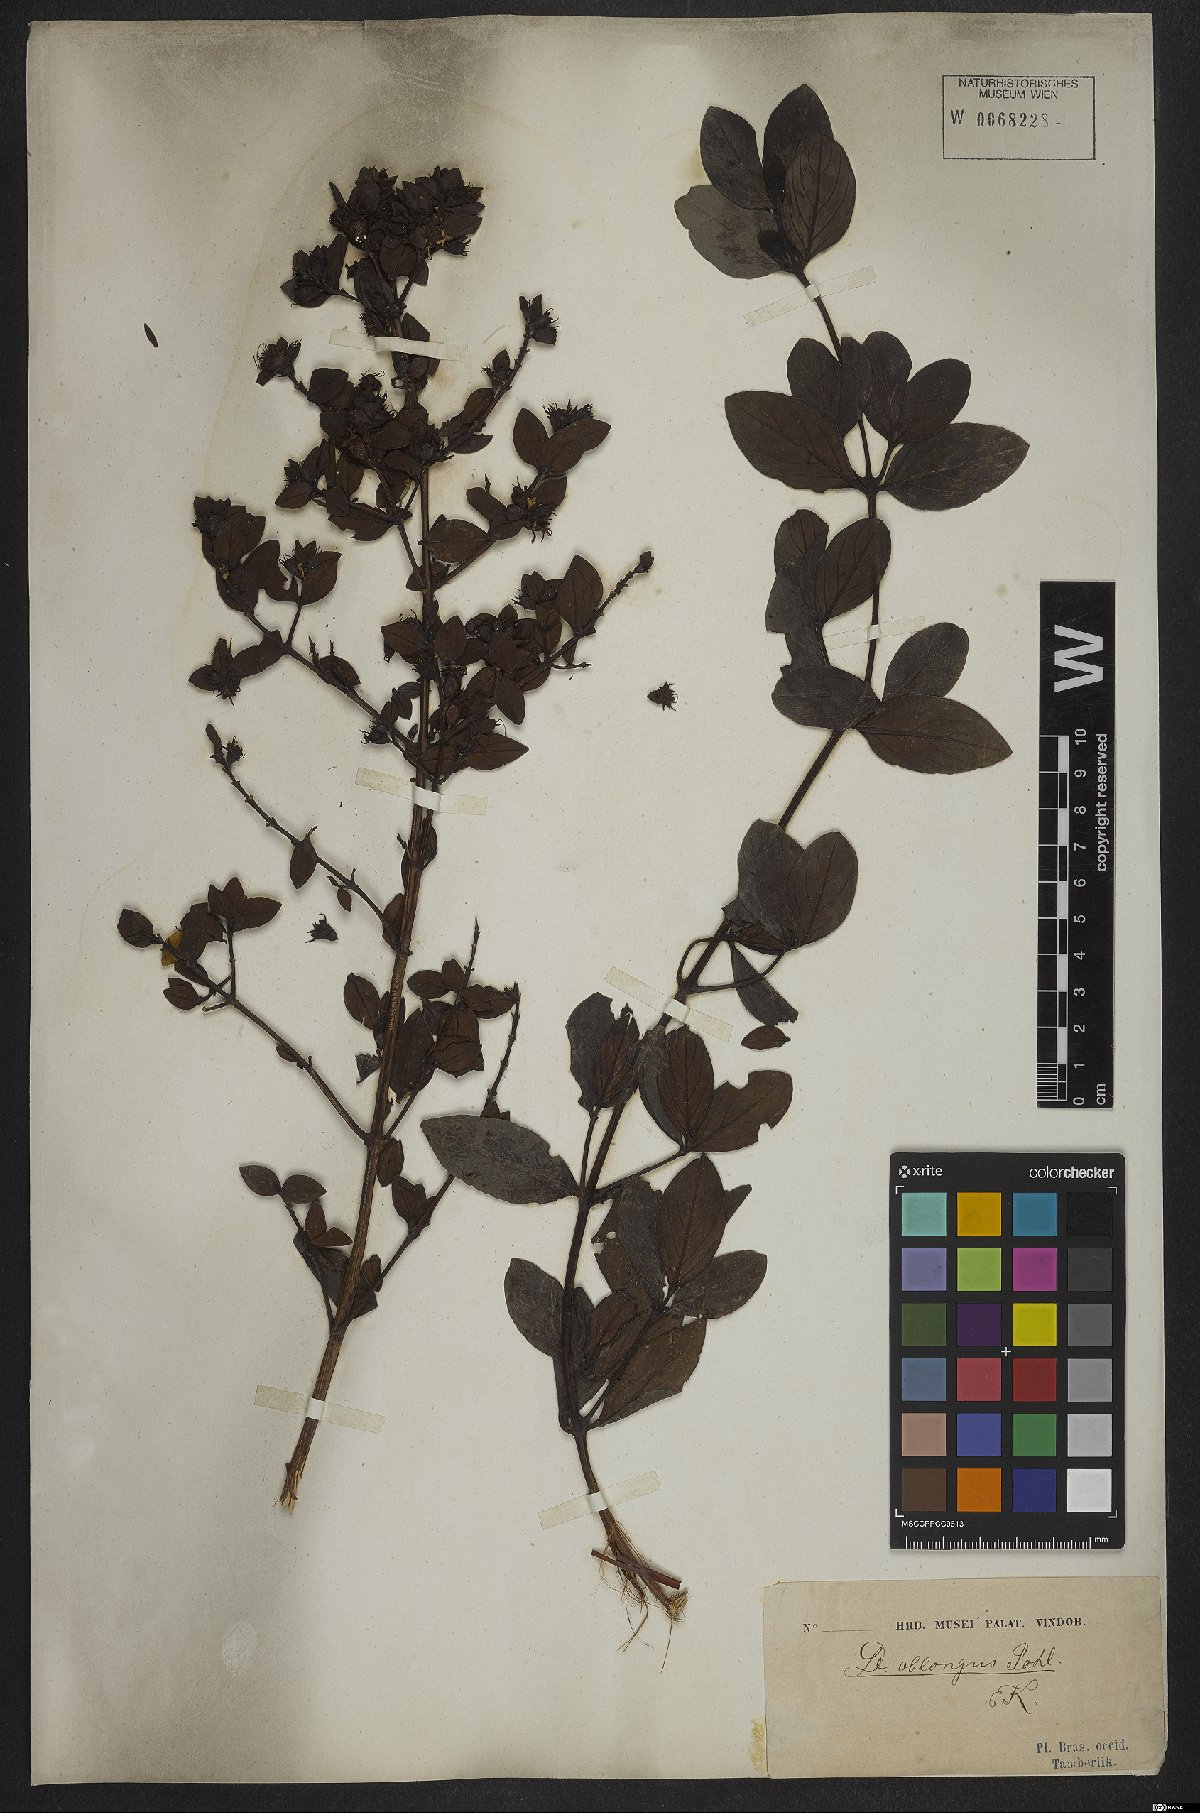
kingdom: Plantae
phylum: Tracheophyta
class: Magnoliopsida
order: Myrtales
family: Lythraceae
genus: Diplusodon
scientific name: Diplusodon oblongus
